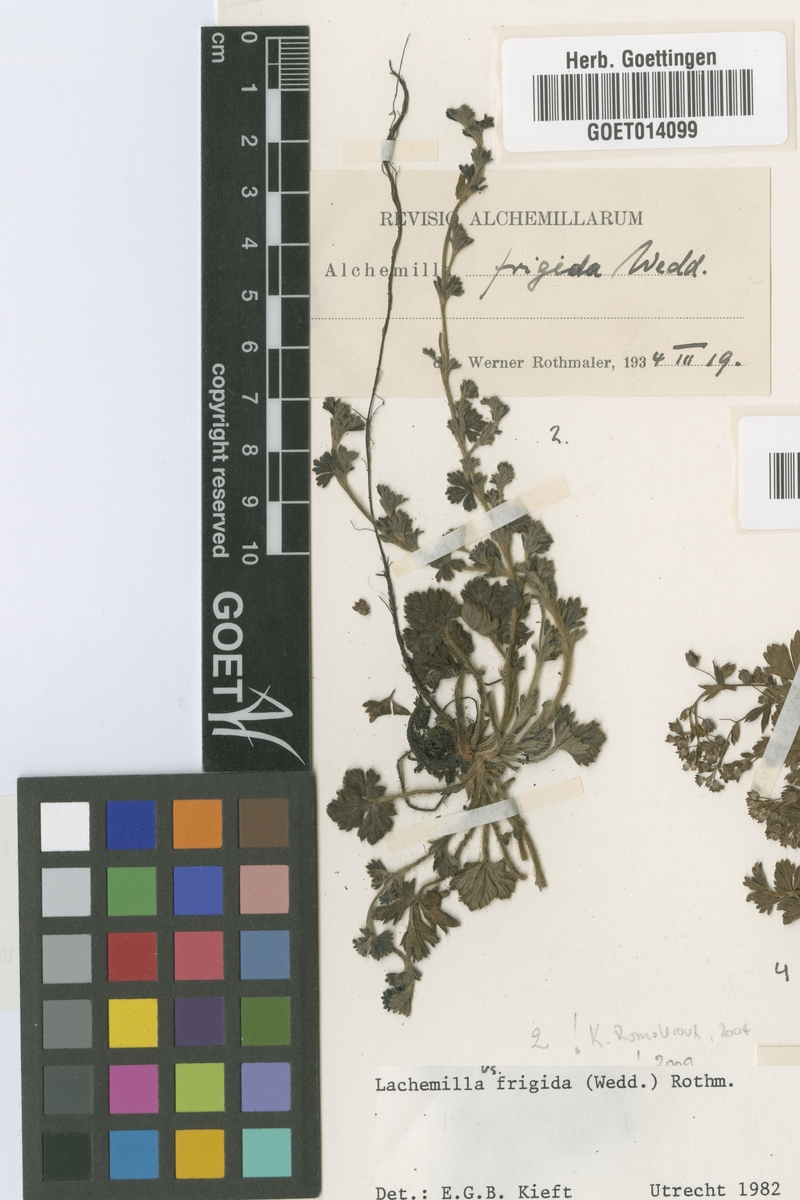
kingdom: Plantae
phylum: Tracheophyta
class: Magnoliopsida
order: Rosales
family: Rosaceae
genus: Lachemilla
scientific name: Lachemilla frigida
